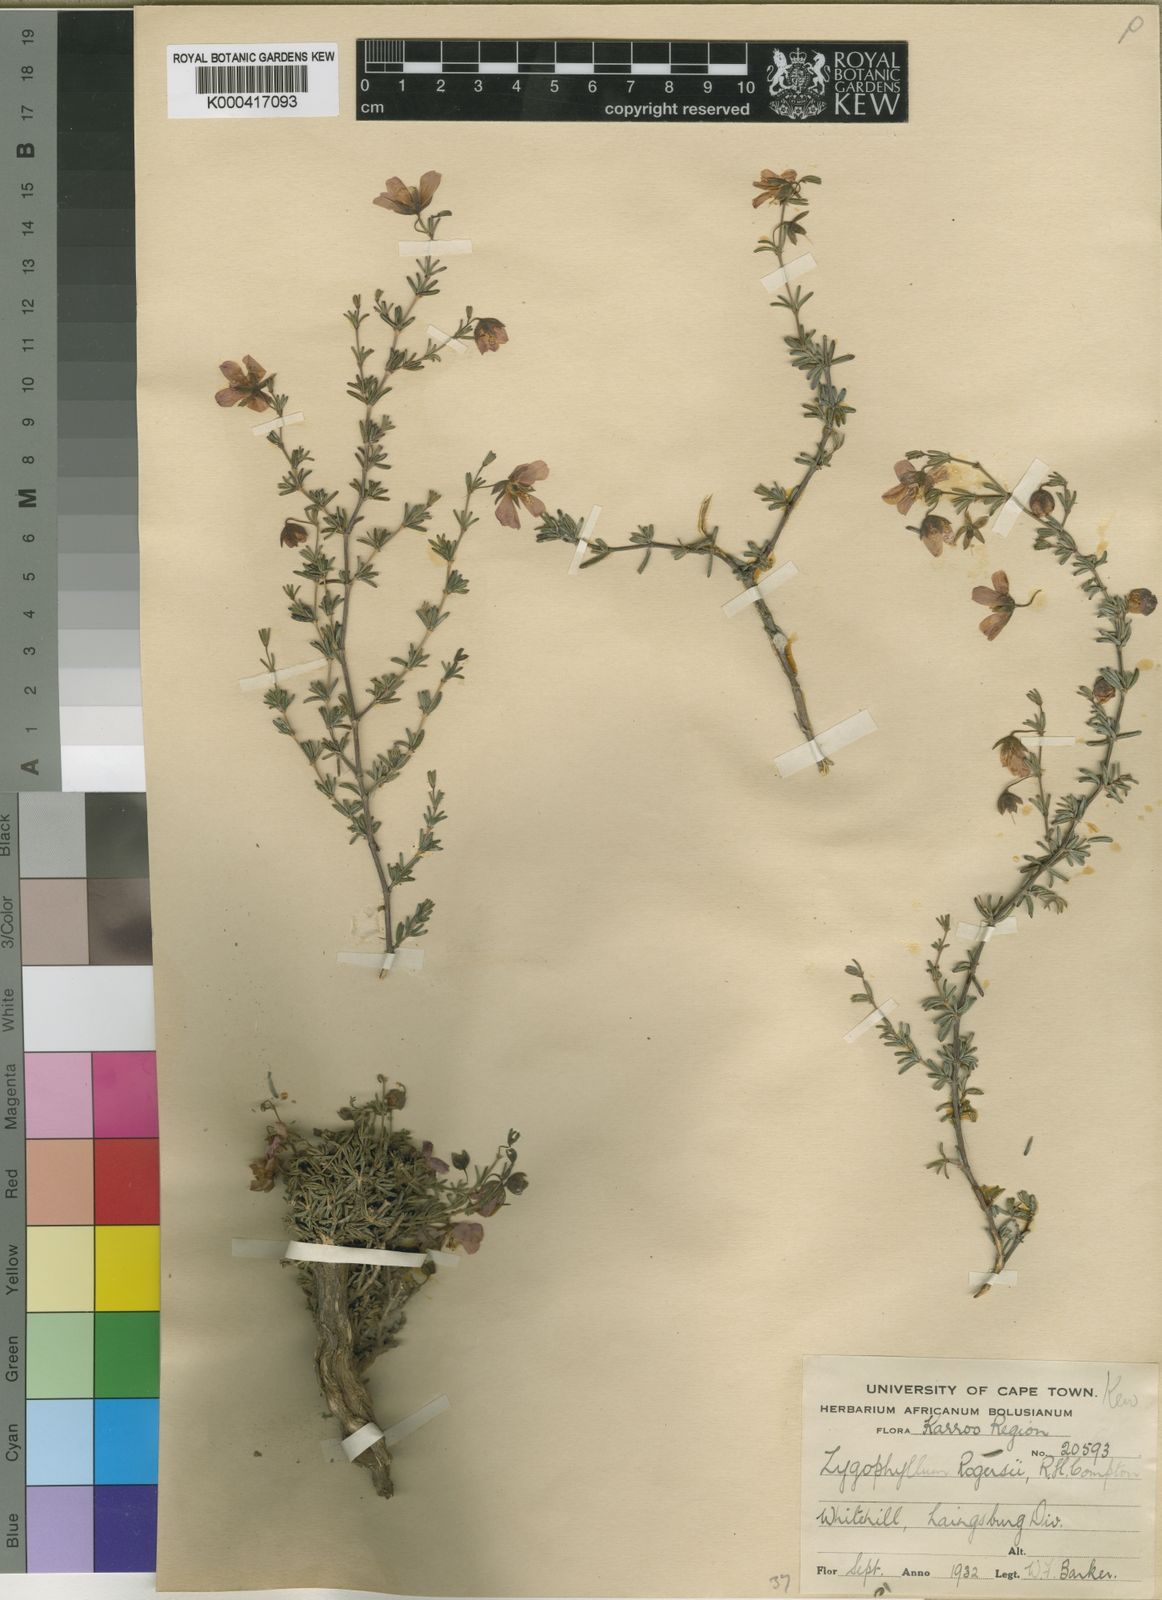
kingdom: Plantae
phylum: Tracheophyta
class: Magnoliopsida
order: Zygophyllales
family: Zygophyllaceae
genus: Roepera
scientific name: Roepera rogersii
